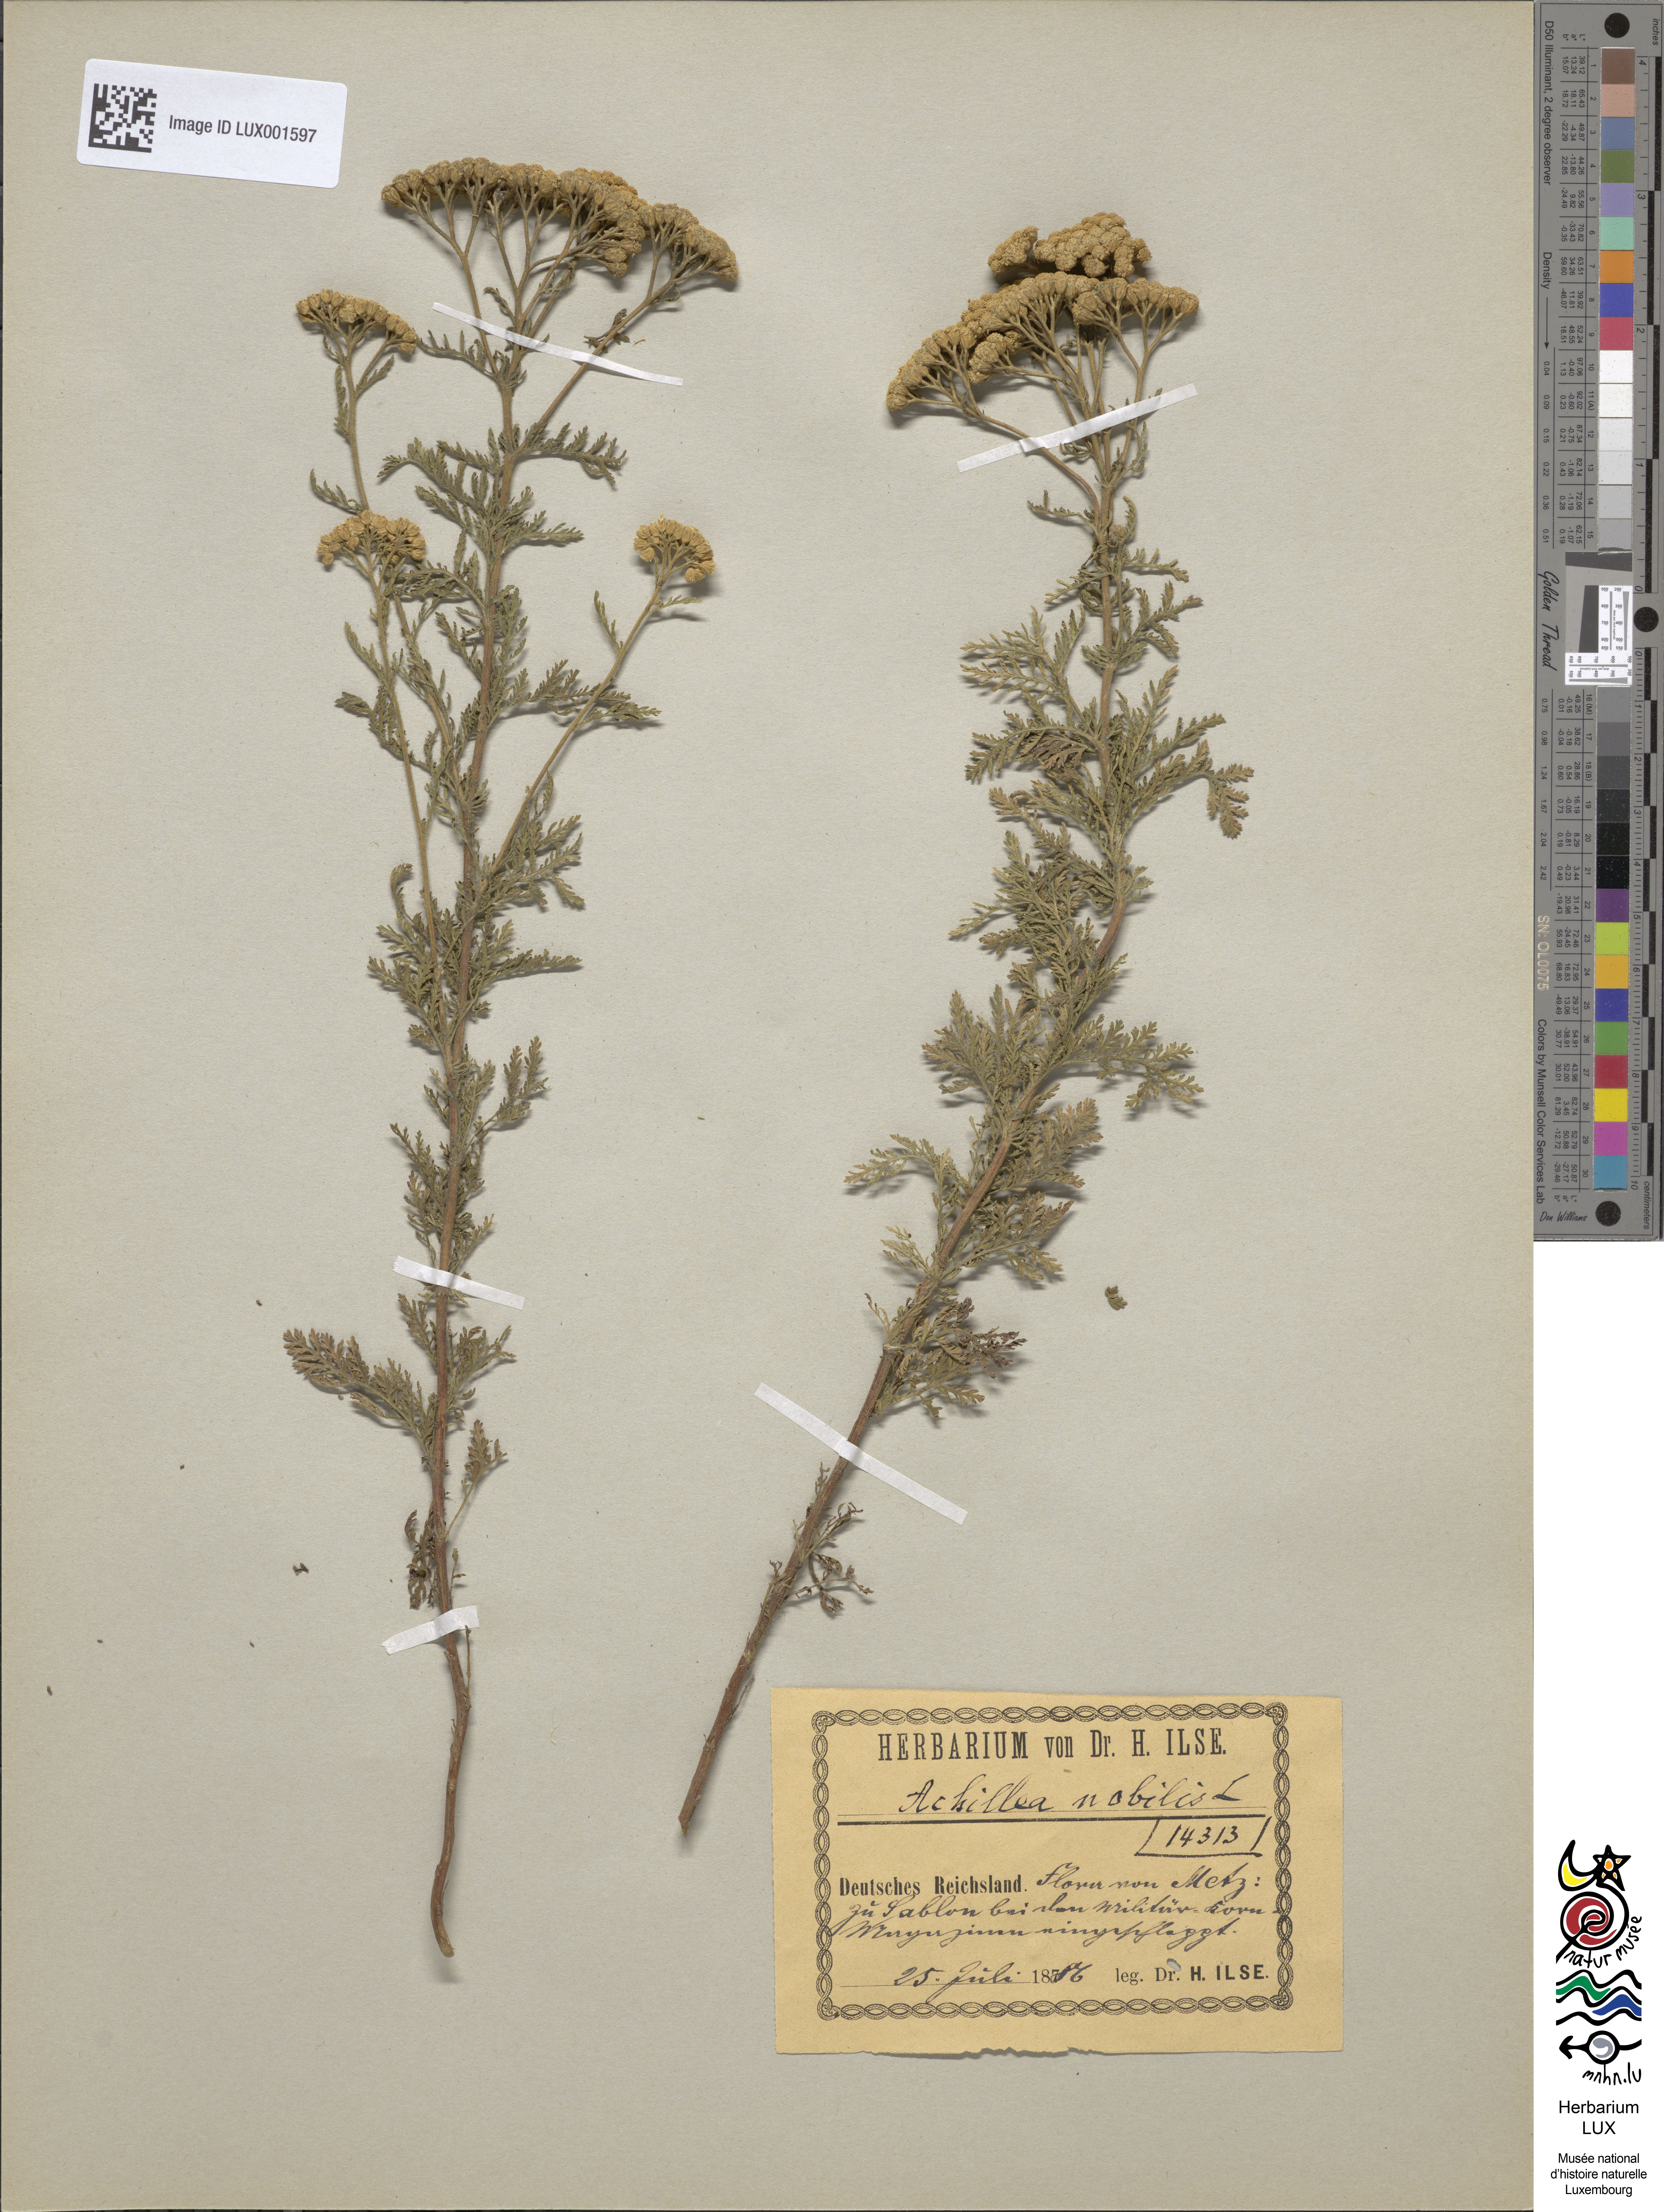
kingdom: Plantae
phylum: Tracheophyta
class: Magnoliopsida
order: Asterales
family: Asteraceae
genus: Achillea
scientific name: Achillea nobilis
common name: Noble yarrow
